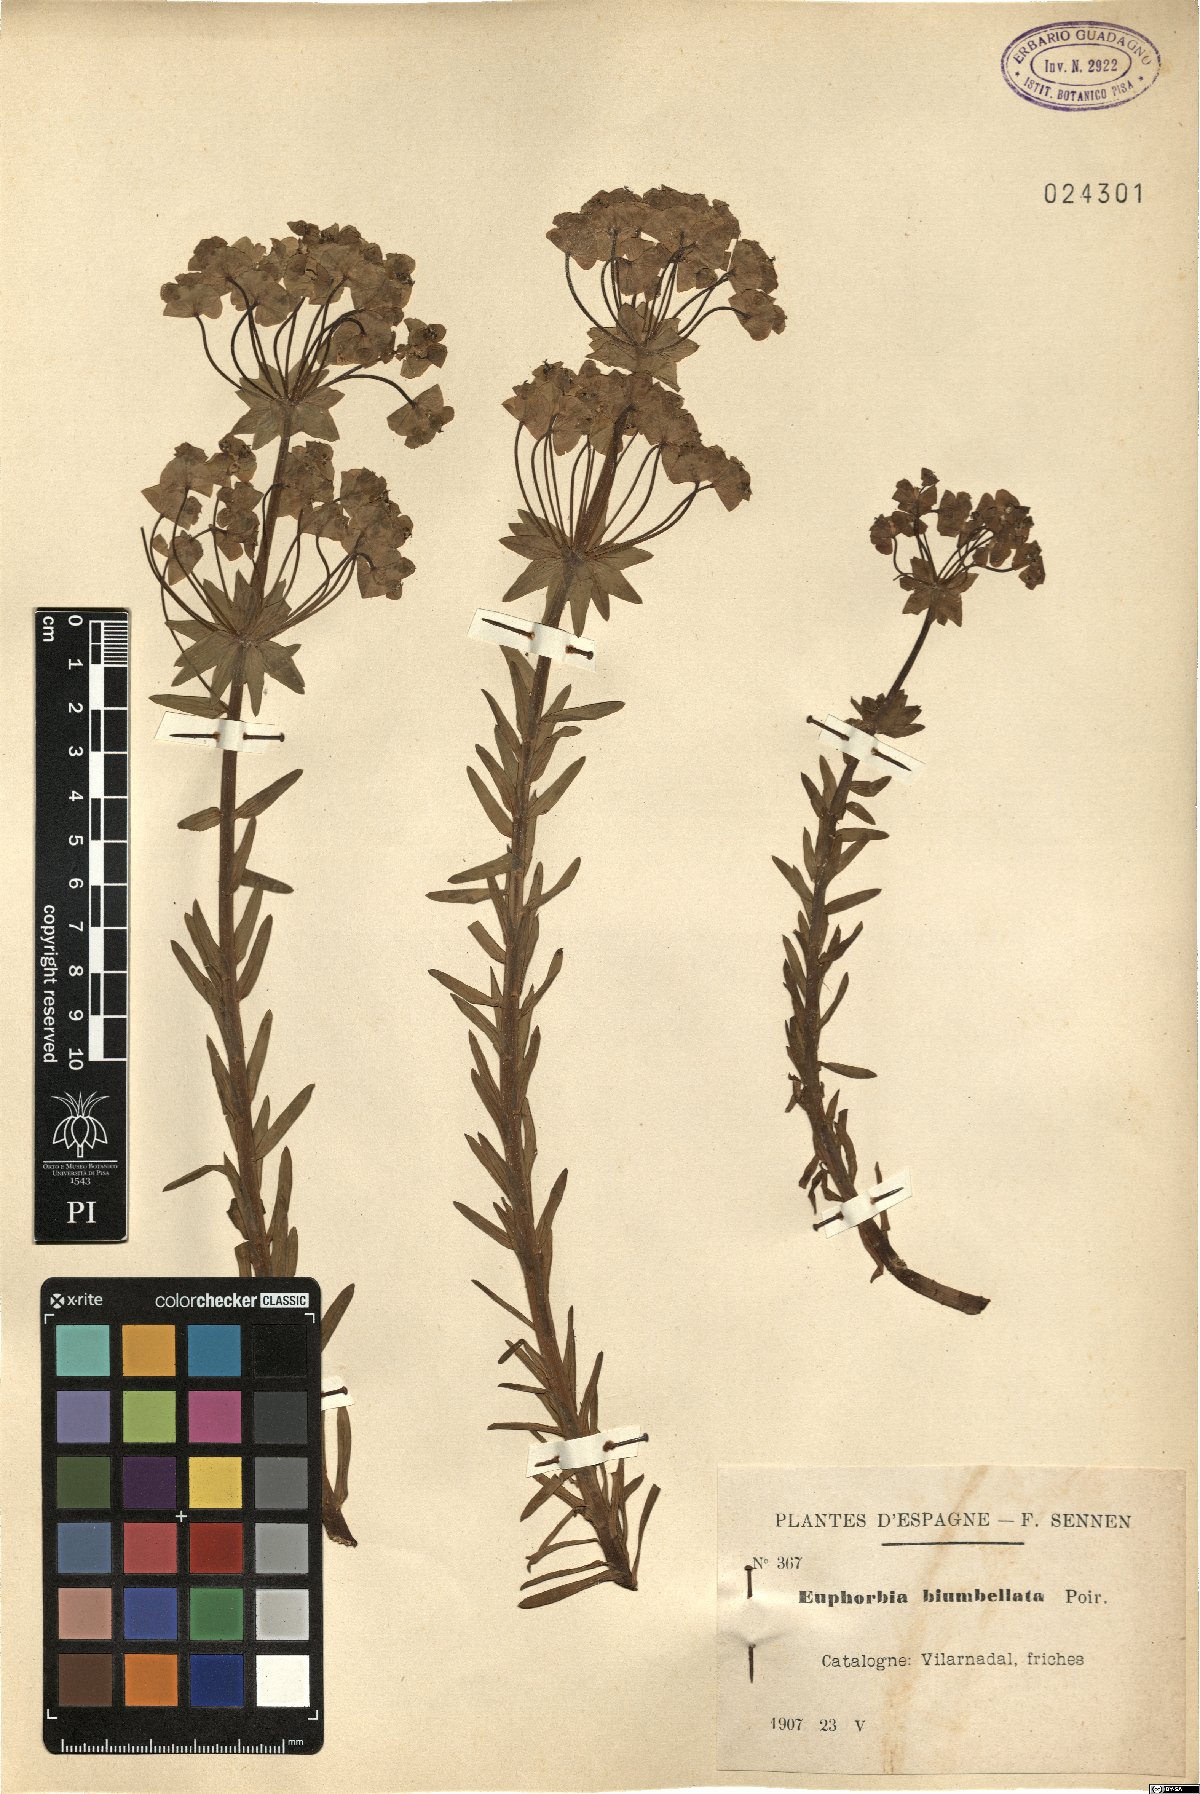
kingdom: Plantae
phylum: Tracheophyta
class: Magnoliopsida
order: Malpighiales
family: Euphorbiaceae
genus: Euphorbia
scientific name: Euphorbia biumbellata
